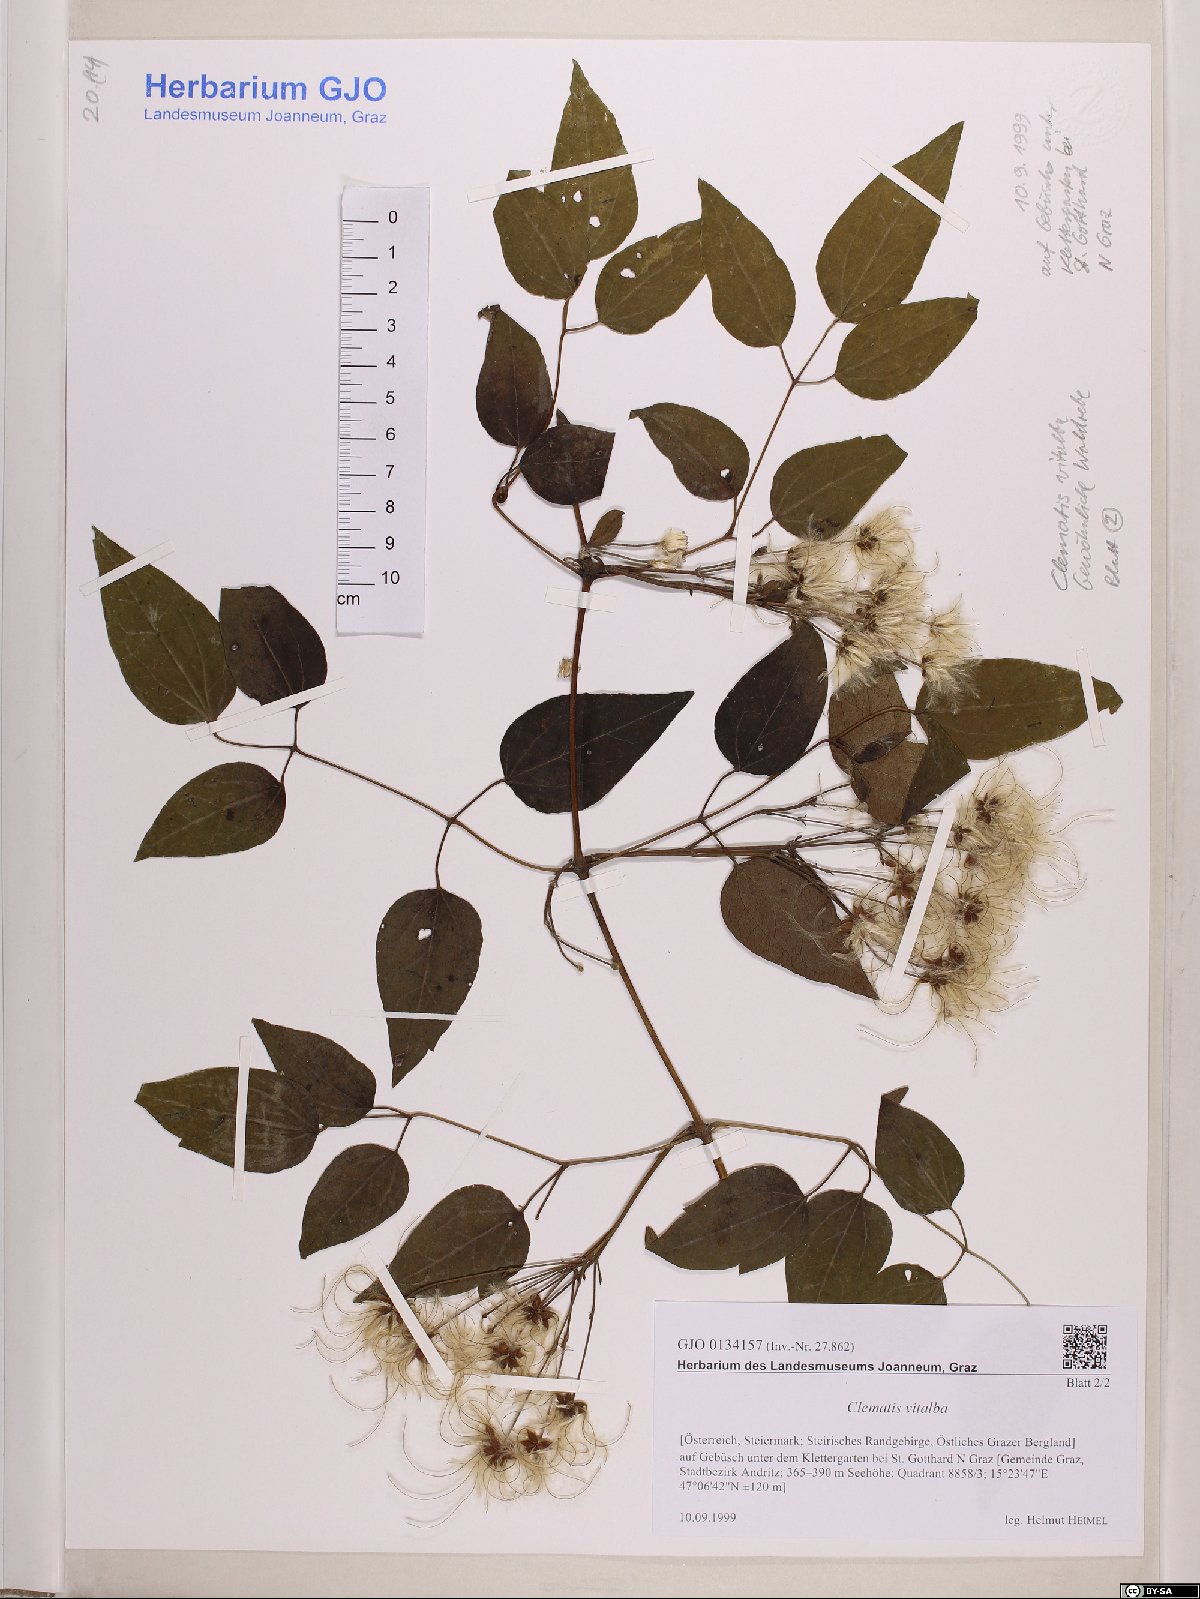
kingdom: Plantae
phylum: Tracheophyta
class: Magnoliopsida
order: Ranunculales
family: Ranunculaceae
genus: Clematis
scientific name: Clematis vitalba
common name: Evergreen clematis
